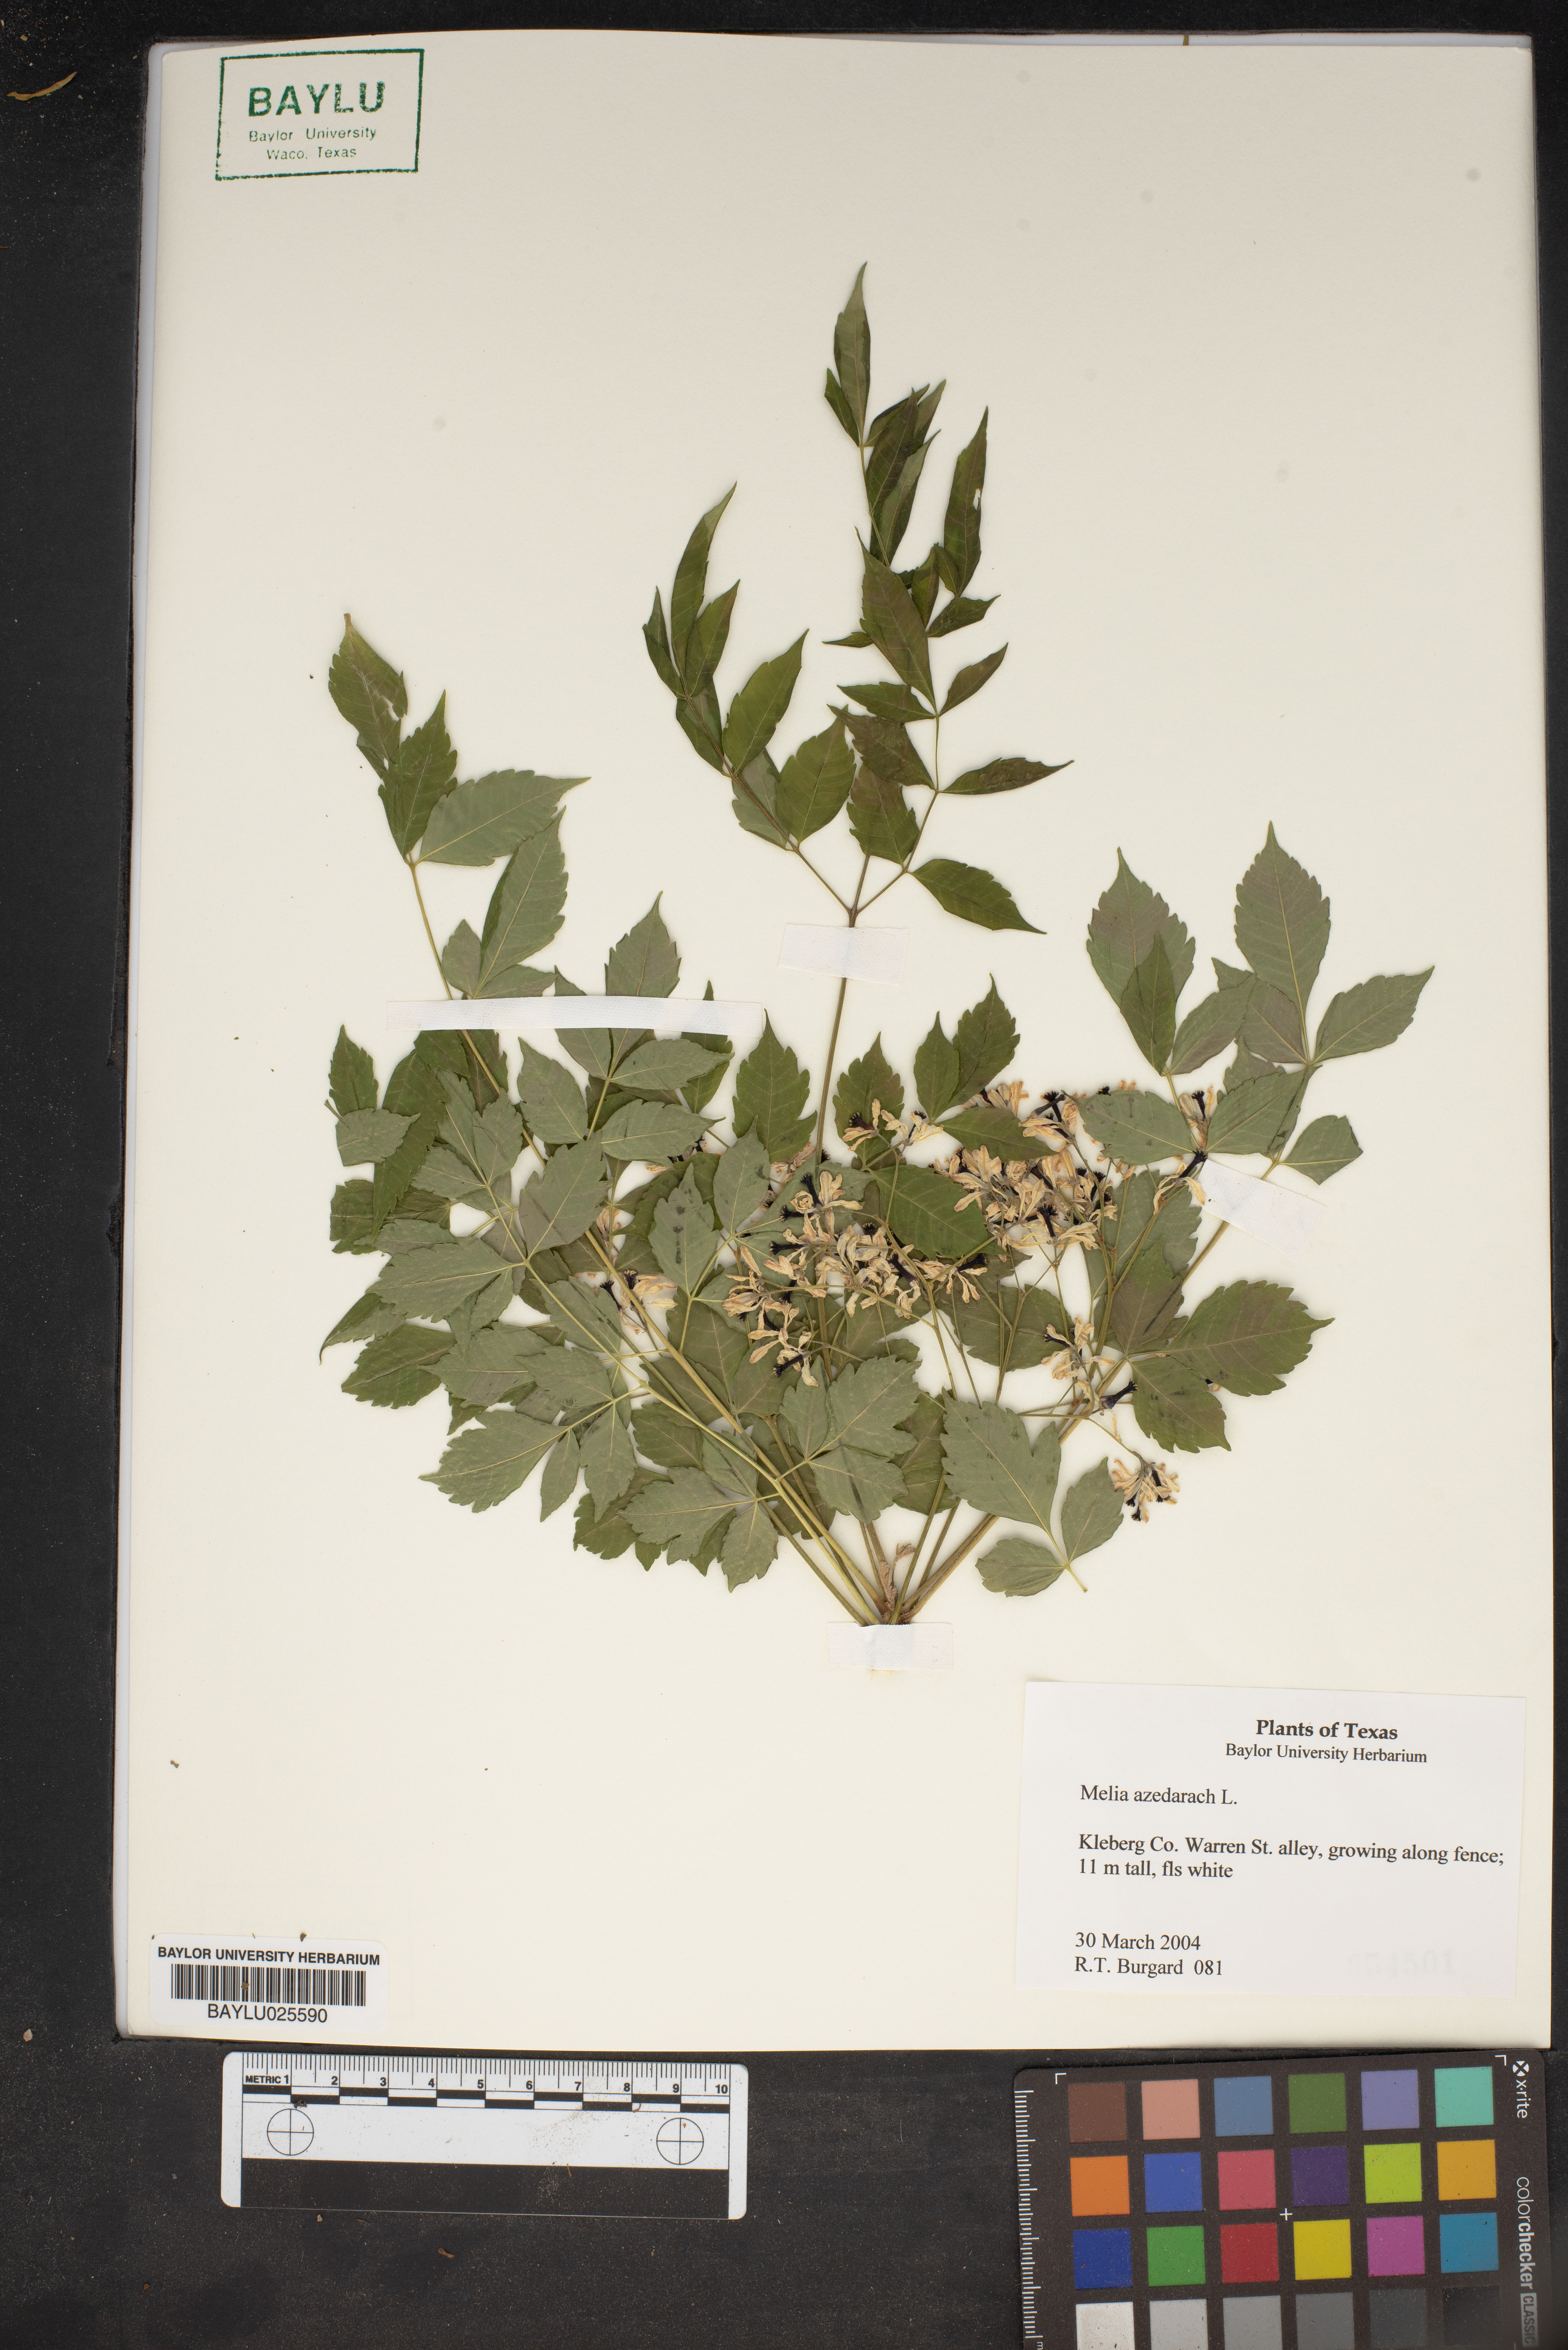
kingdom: Plantae
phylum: Tracheophyta
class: Magnoliopsida
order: Sapindales
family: Meliaceae
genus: Melia
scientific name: Melia azedarach
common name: Chinaberrytree
